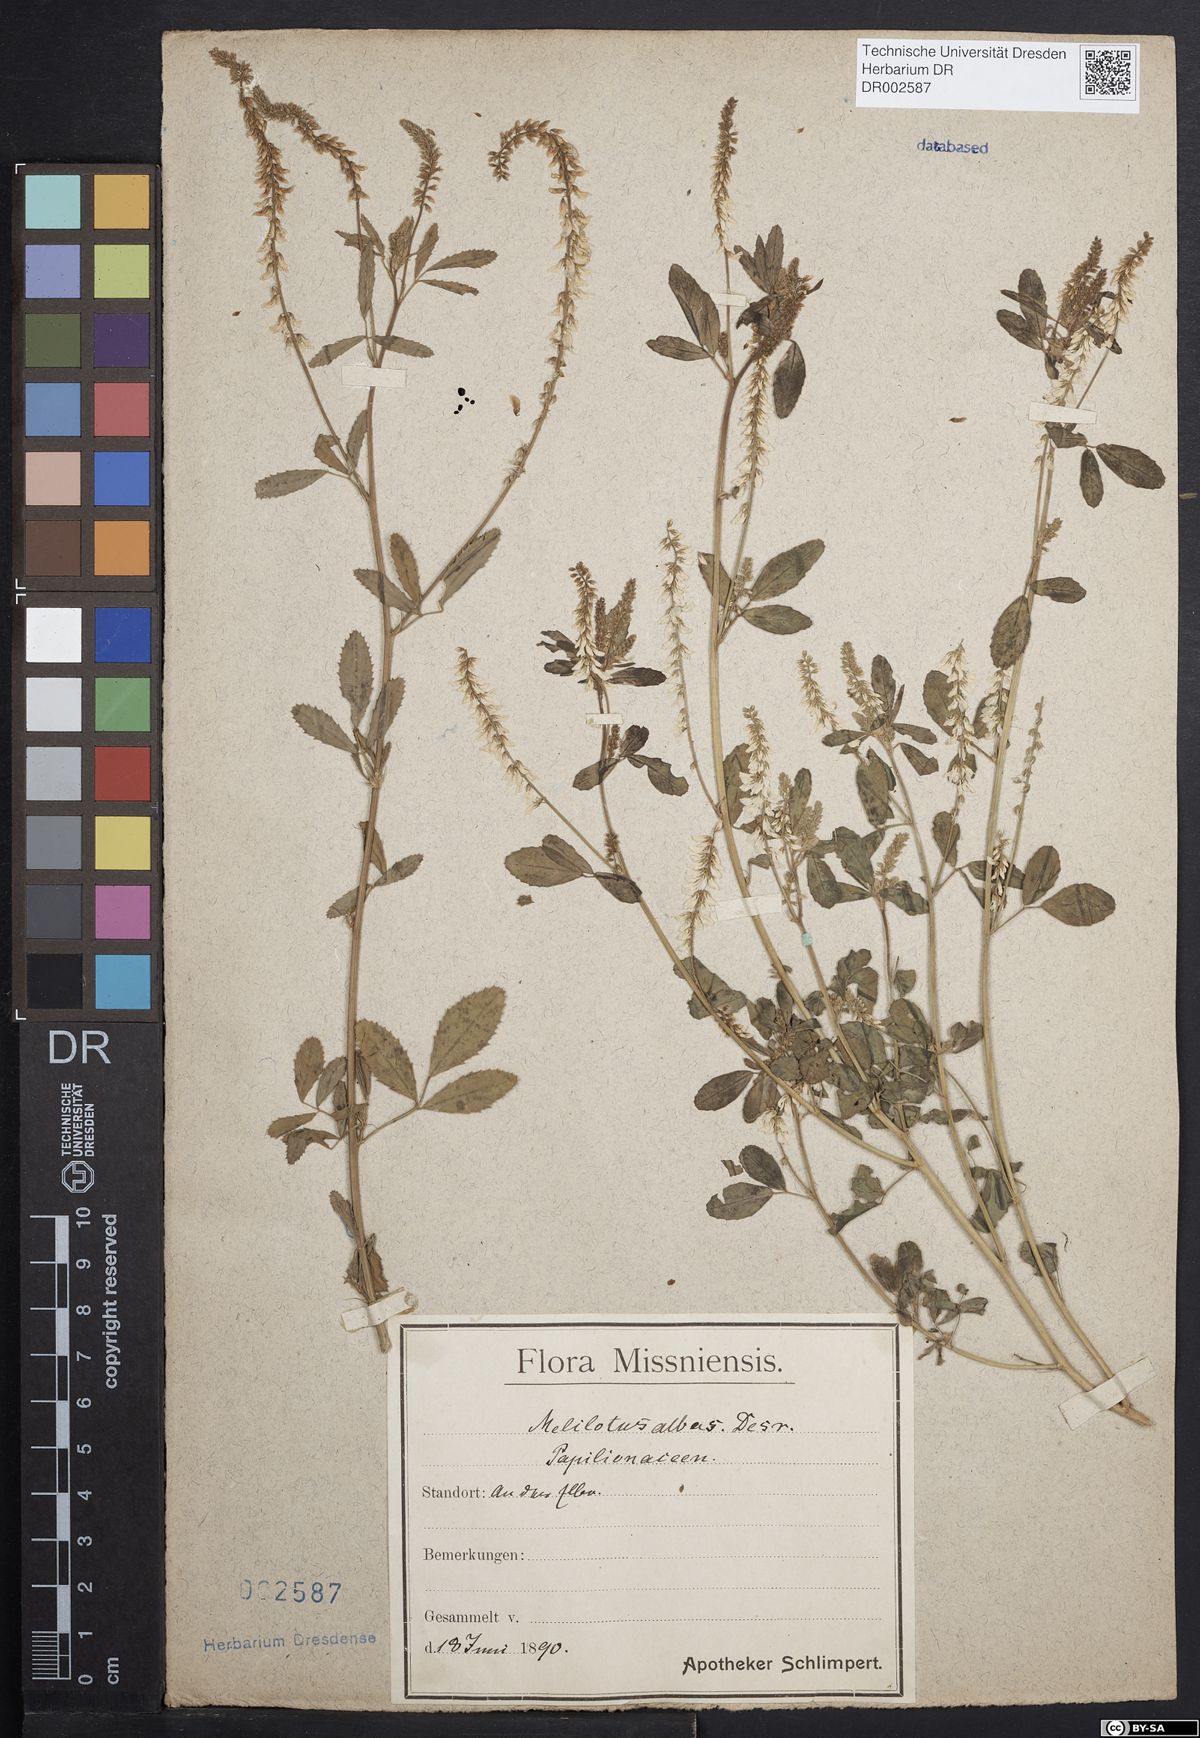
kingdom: Plantae
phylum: Tracheophyta
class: Magnoliopsida
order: Fabales
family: Fabaceae
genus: Melilotus
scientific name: Melilotus albus
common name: White melilot
